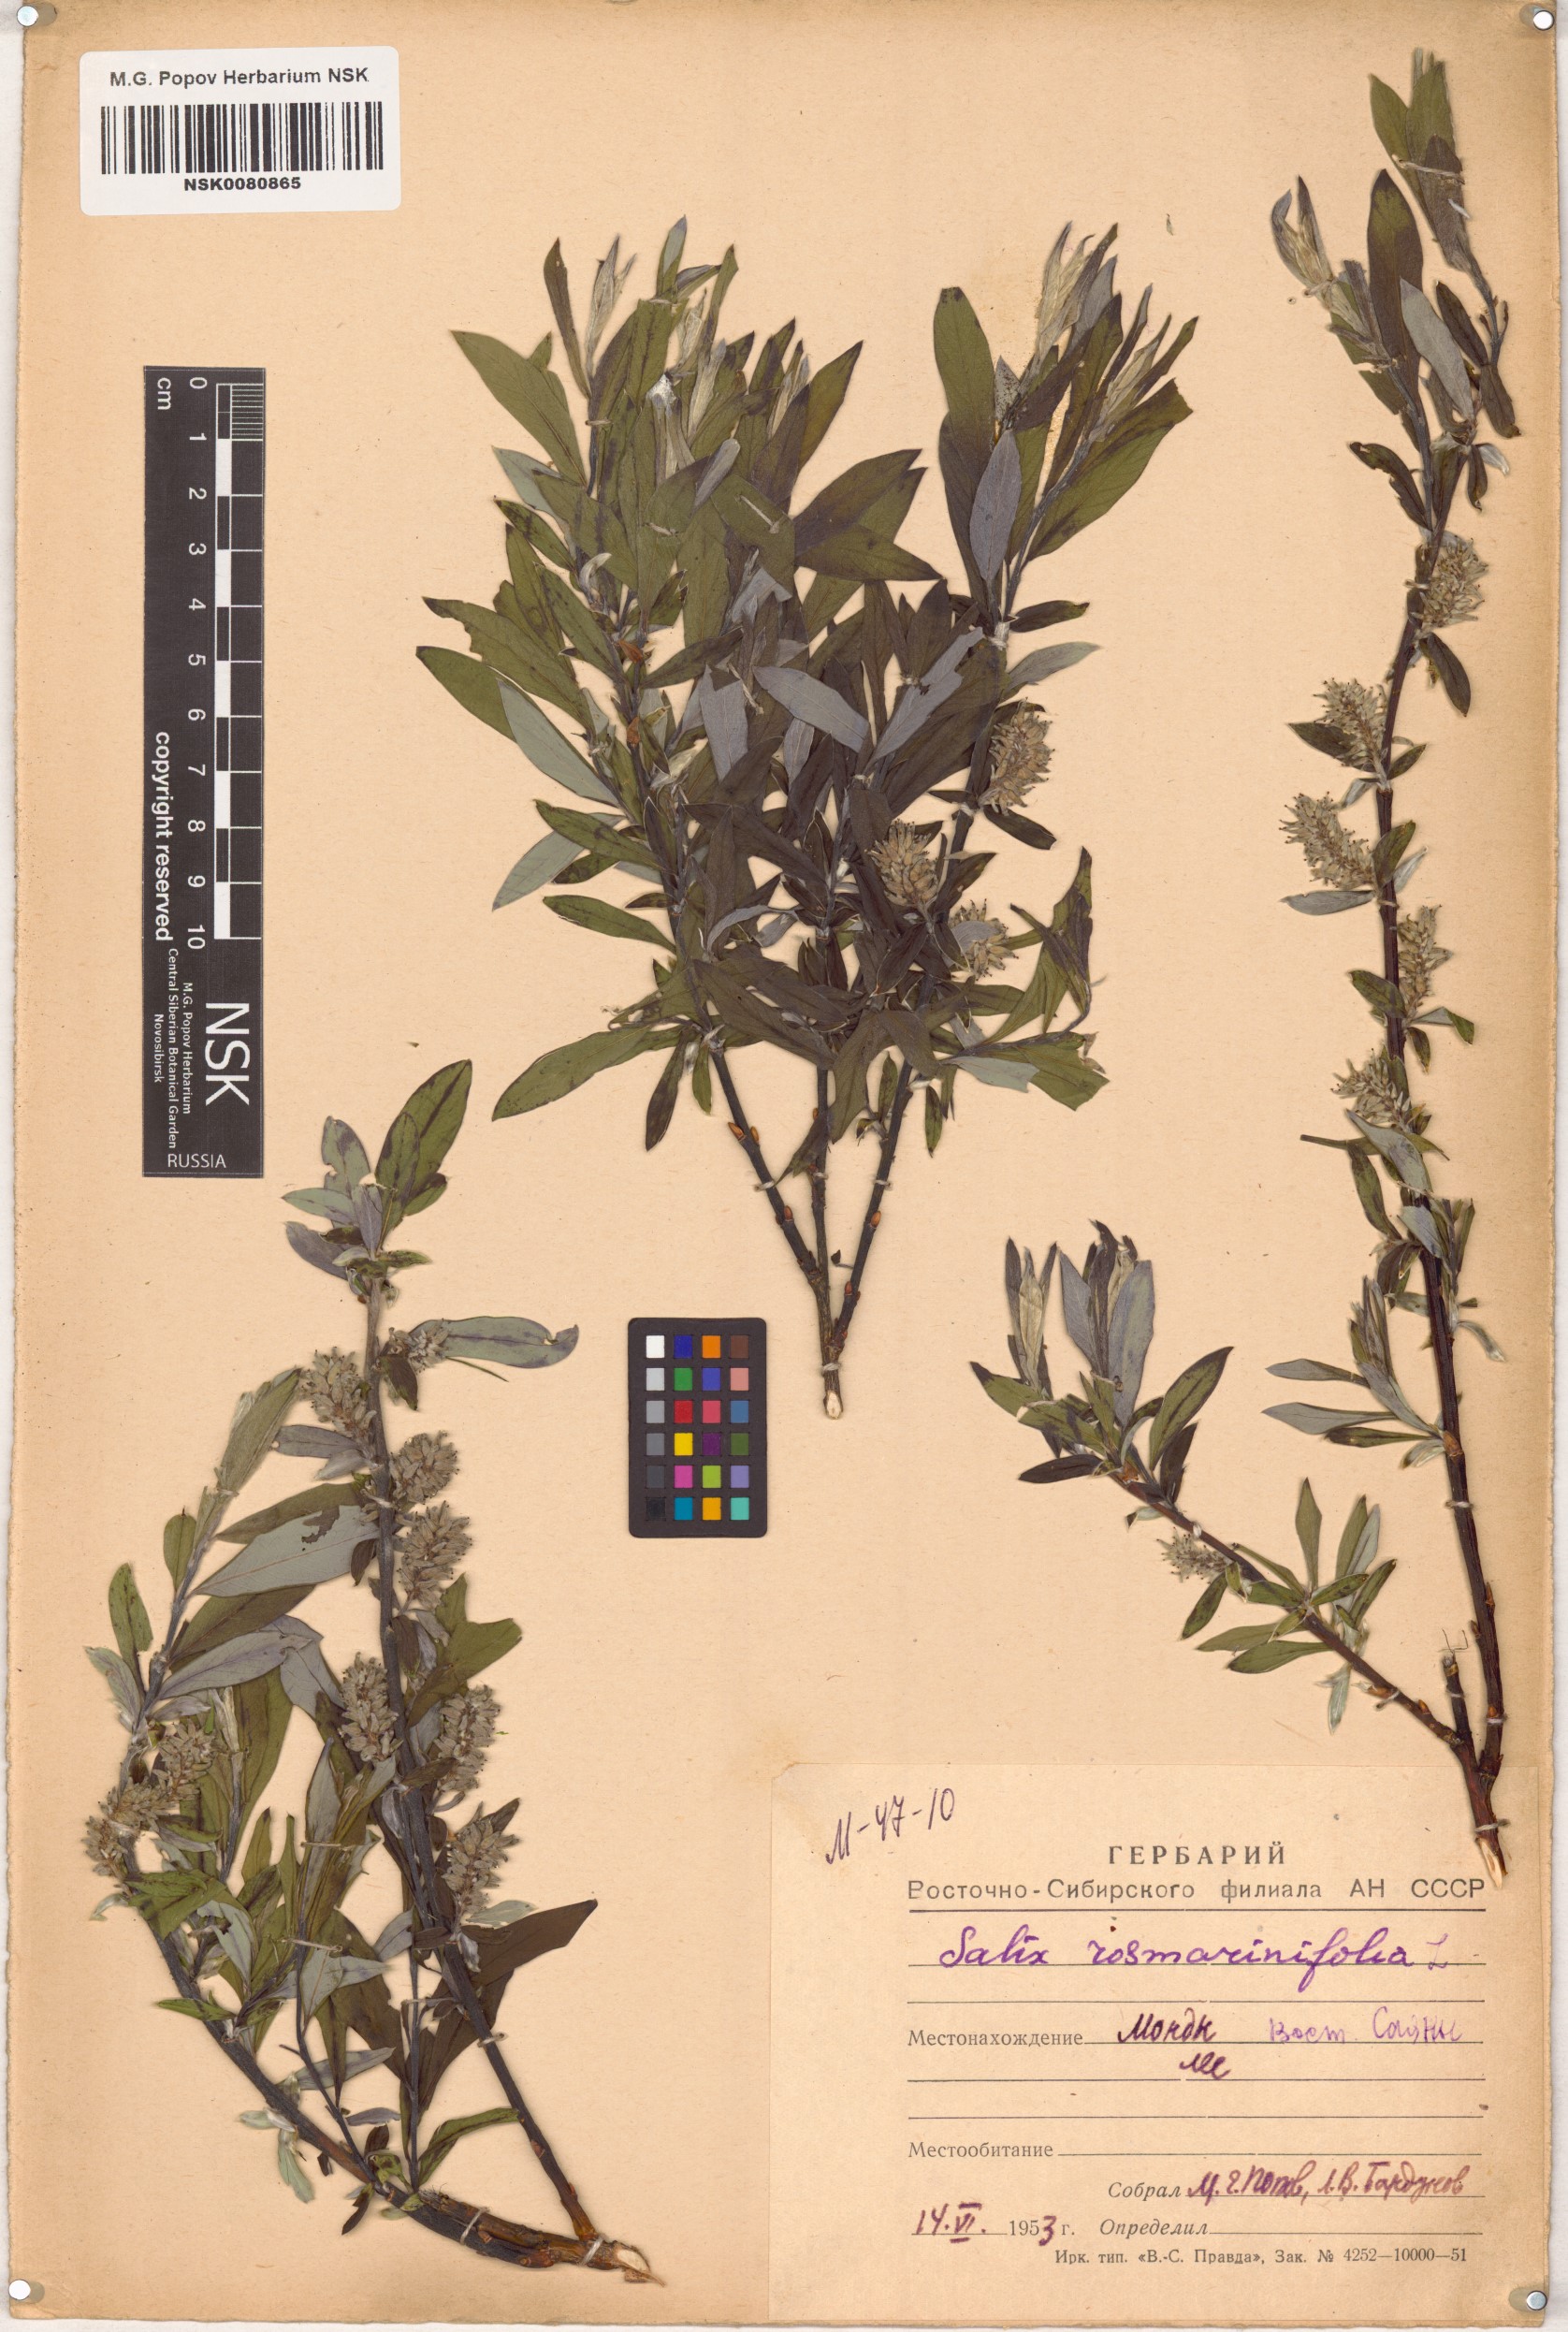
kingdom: Plantae
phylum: Tracheophyta
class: Magnoliopsida
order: Malpighiales
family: Salicaceae
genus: Salix
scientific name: Salix rosmarinifolia
